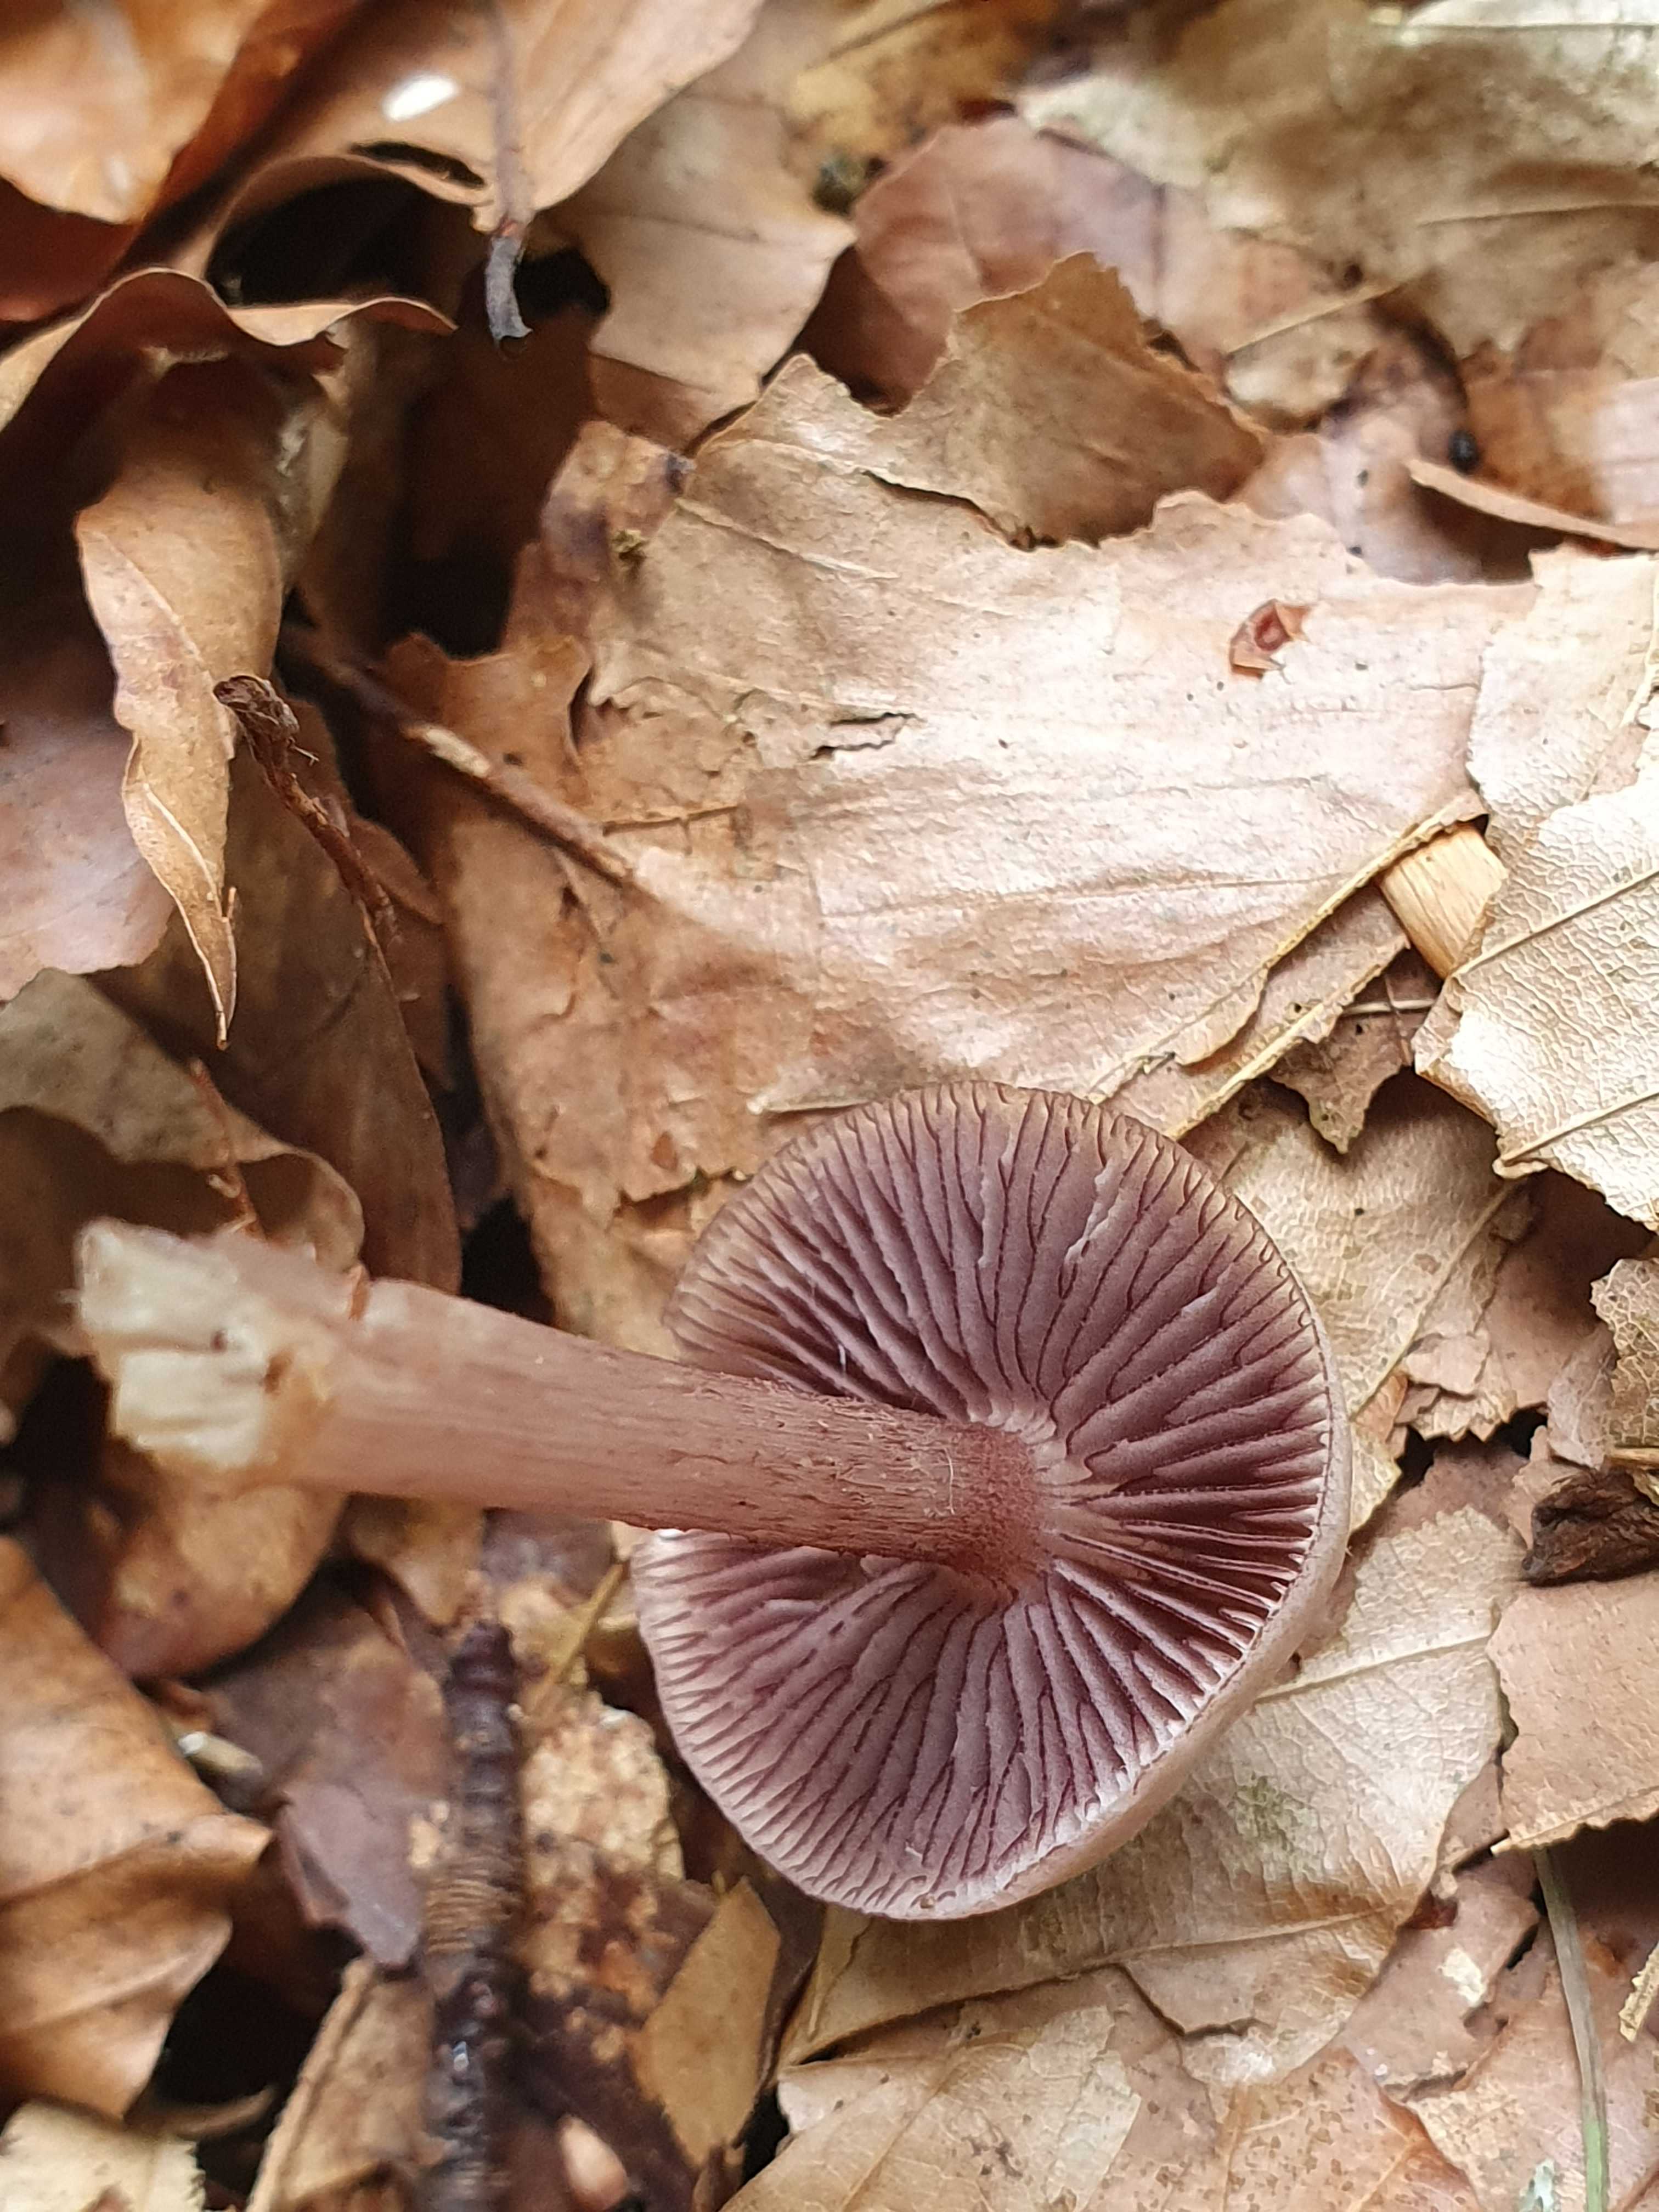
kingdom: Fungi
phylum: Basidiomycota
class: Agaricomycetes
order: Agaricales
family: Mycenaceae
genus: Mycena
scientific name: Mycena pelianthina
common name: mørkbladet huesvamp
